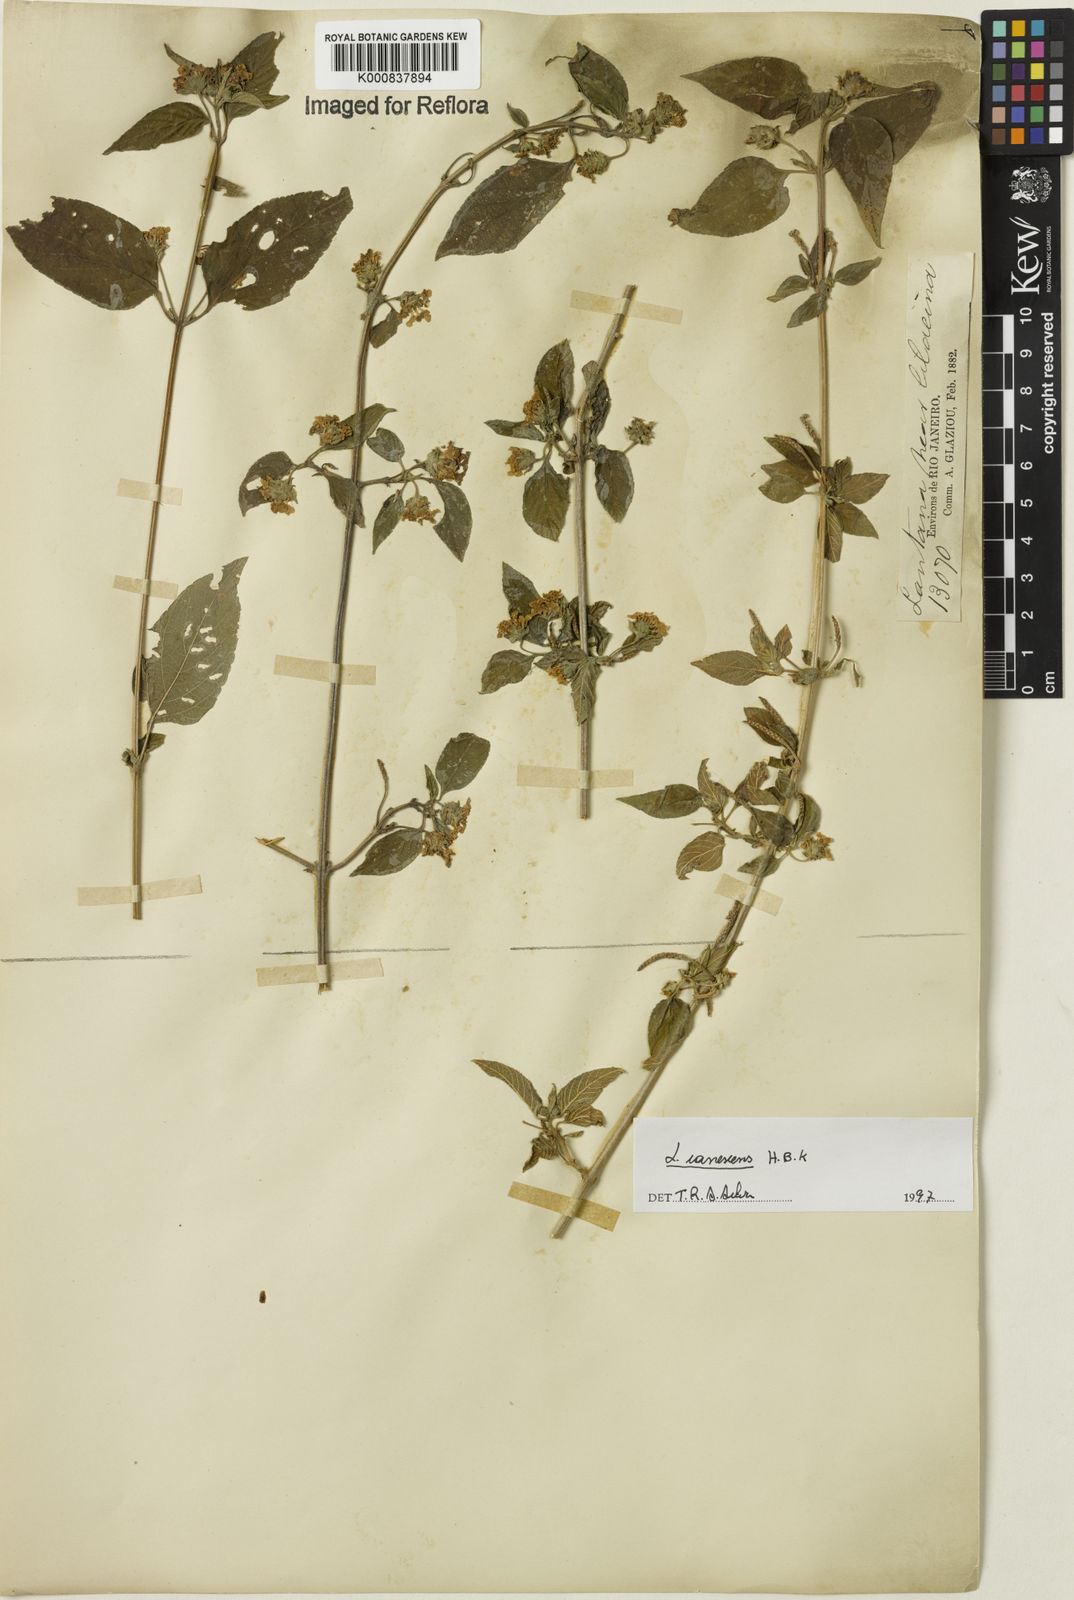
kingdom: Plantae
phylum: Tracheophyta
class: Magnoliopsida
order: Lamiales
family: Verbenaceae
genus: Lantana
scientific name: Lantana canescens
